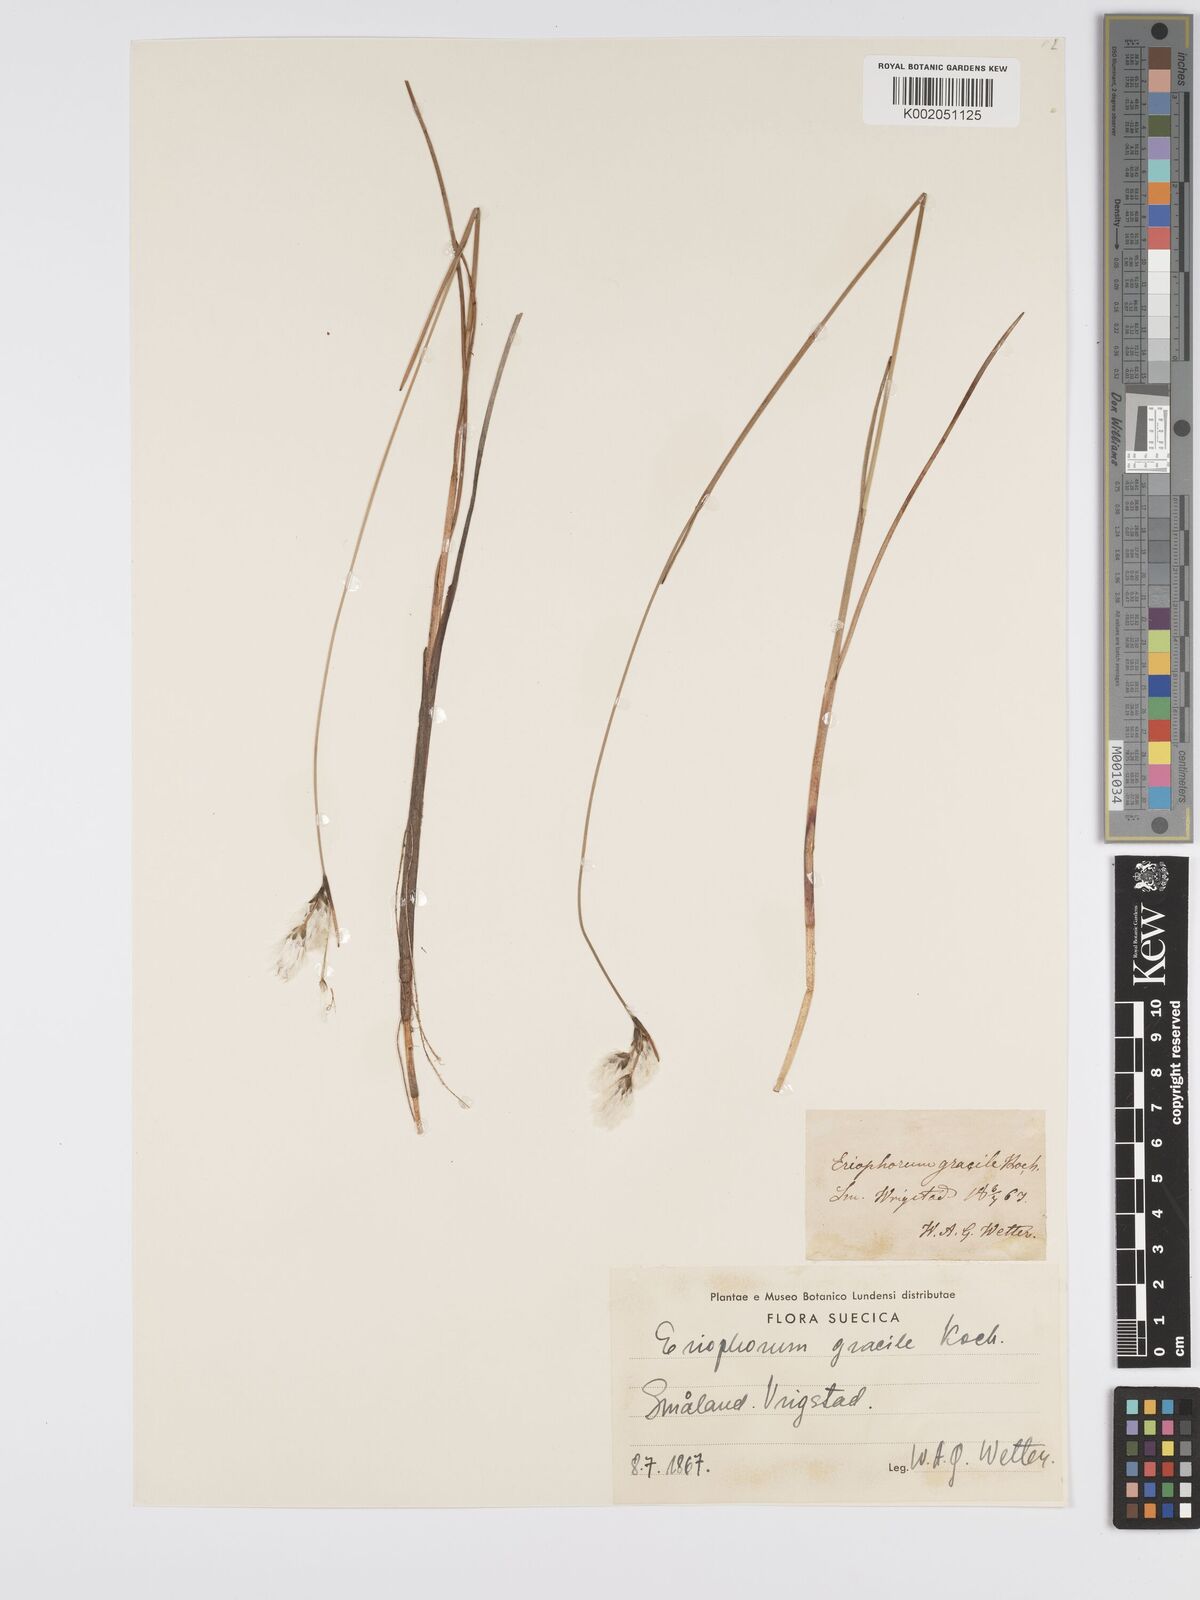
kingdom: Plantae
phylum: Tracheophyta
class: Liliopsida
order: Poales
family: Cyperaceae
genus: Eriophorum
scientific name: Eriophorum gracile
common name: Slender cottongrass
